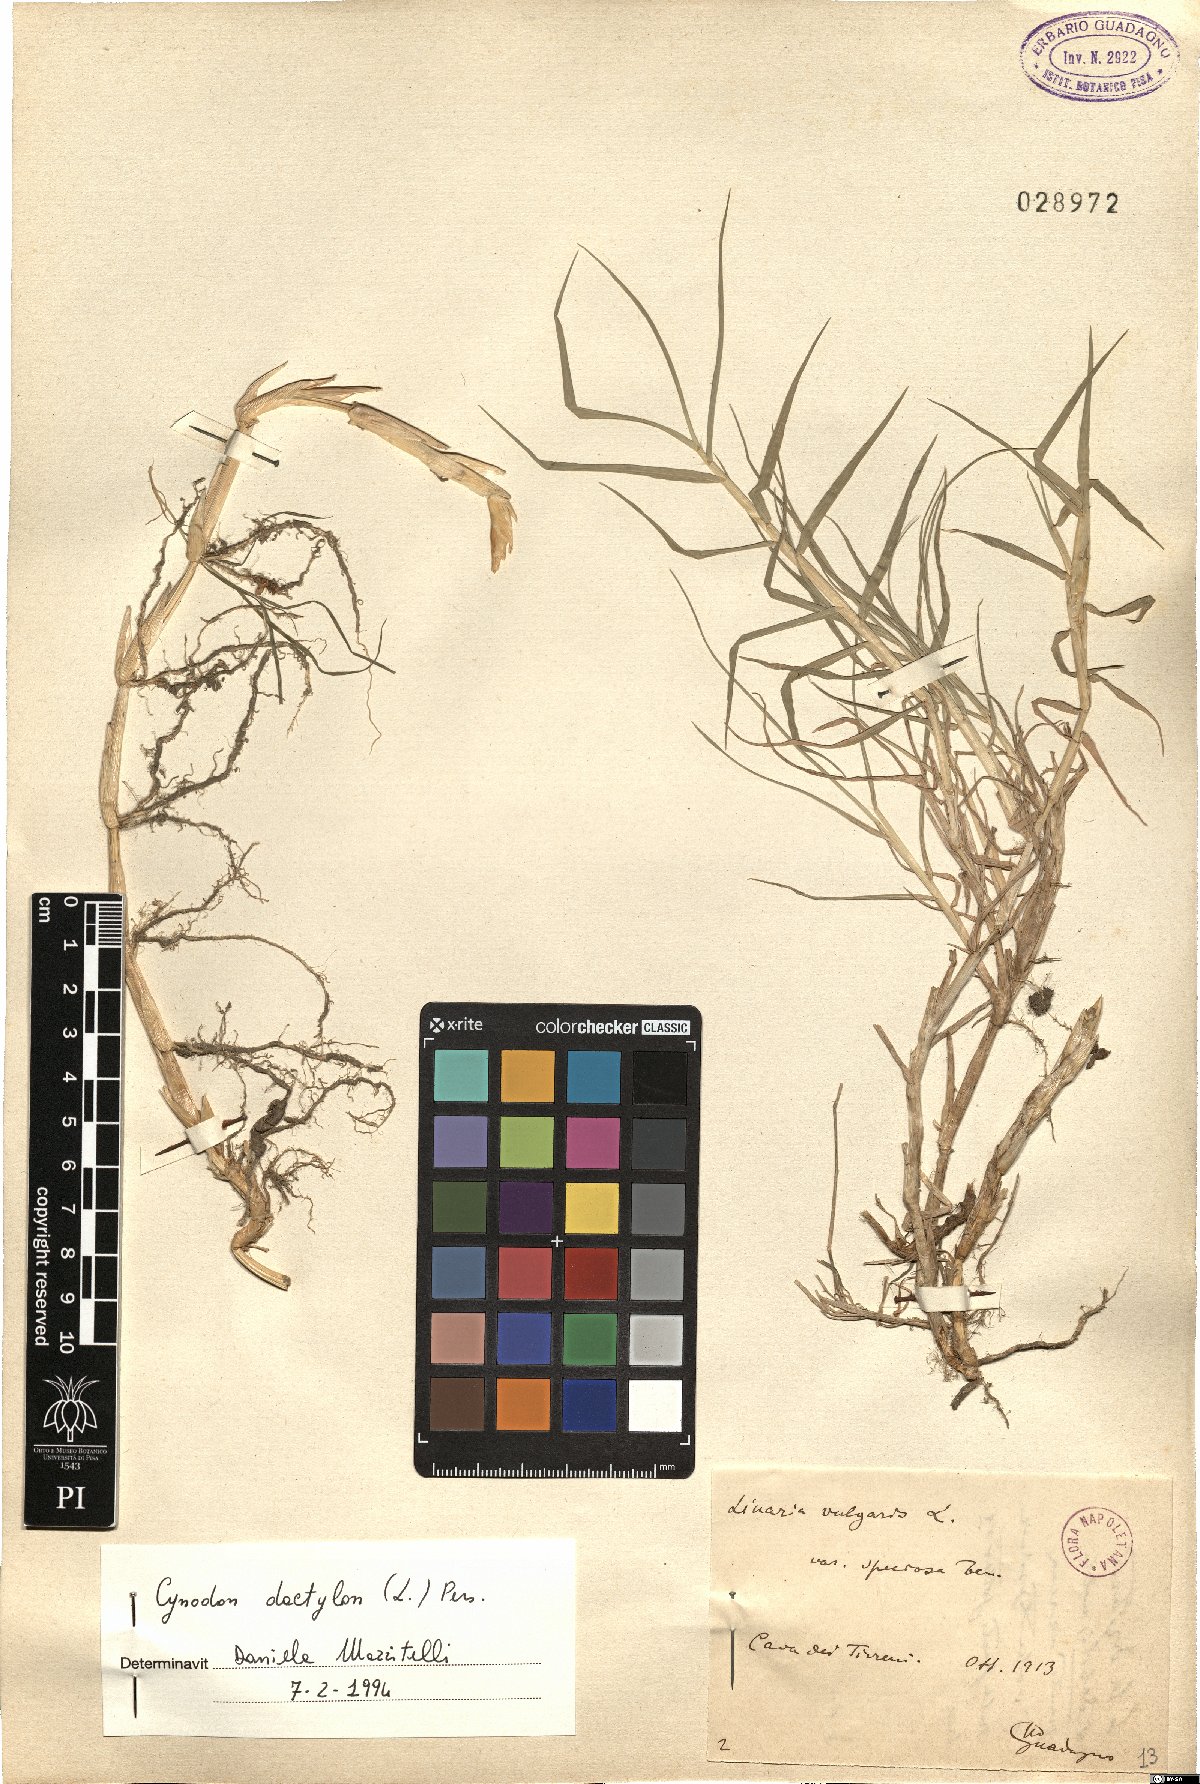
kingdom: Plantae
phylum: Tracheophyta
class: Liliopsida
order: Poales
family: Poaceae
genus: Cynodon
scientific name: Cynodon dactylon
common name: Bermuda grass
